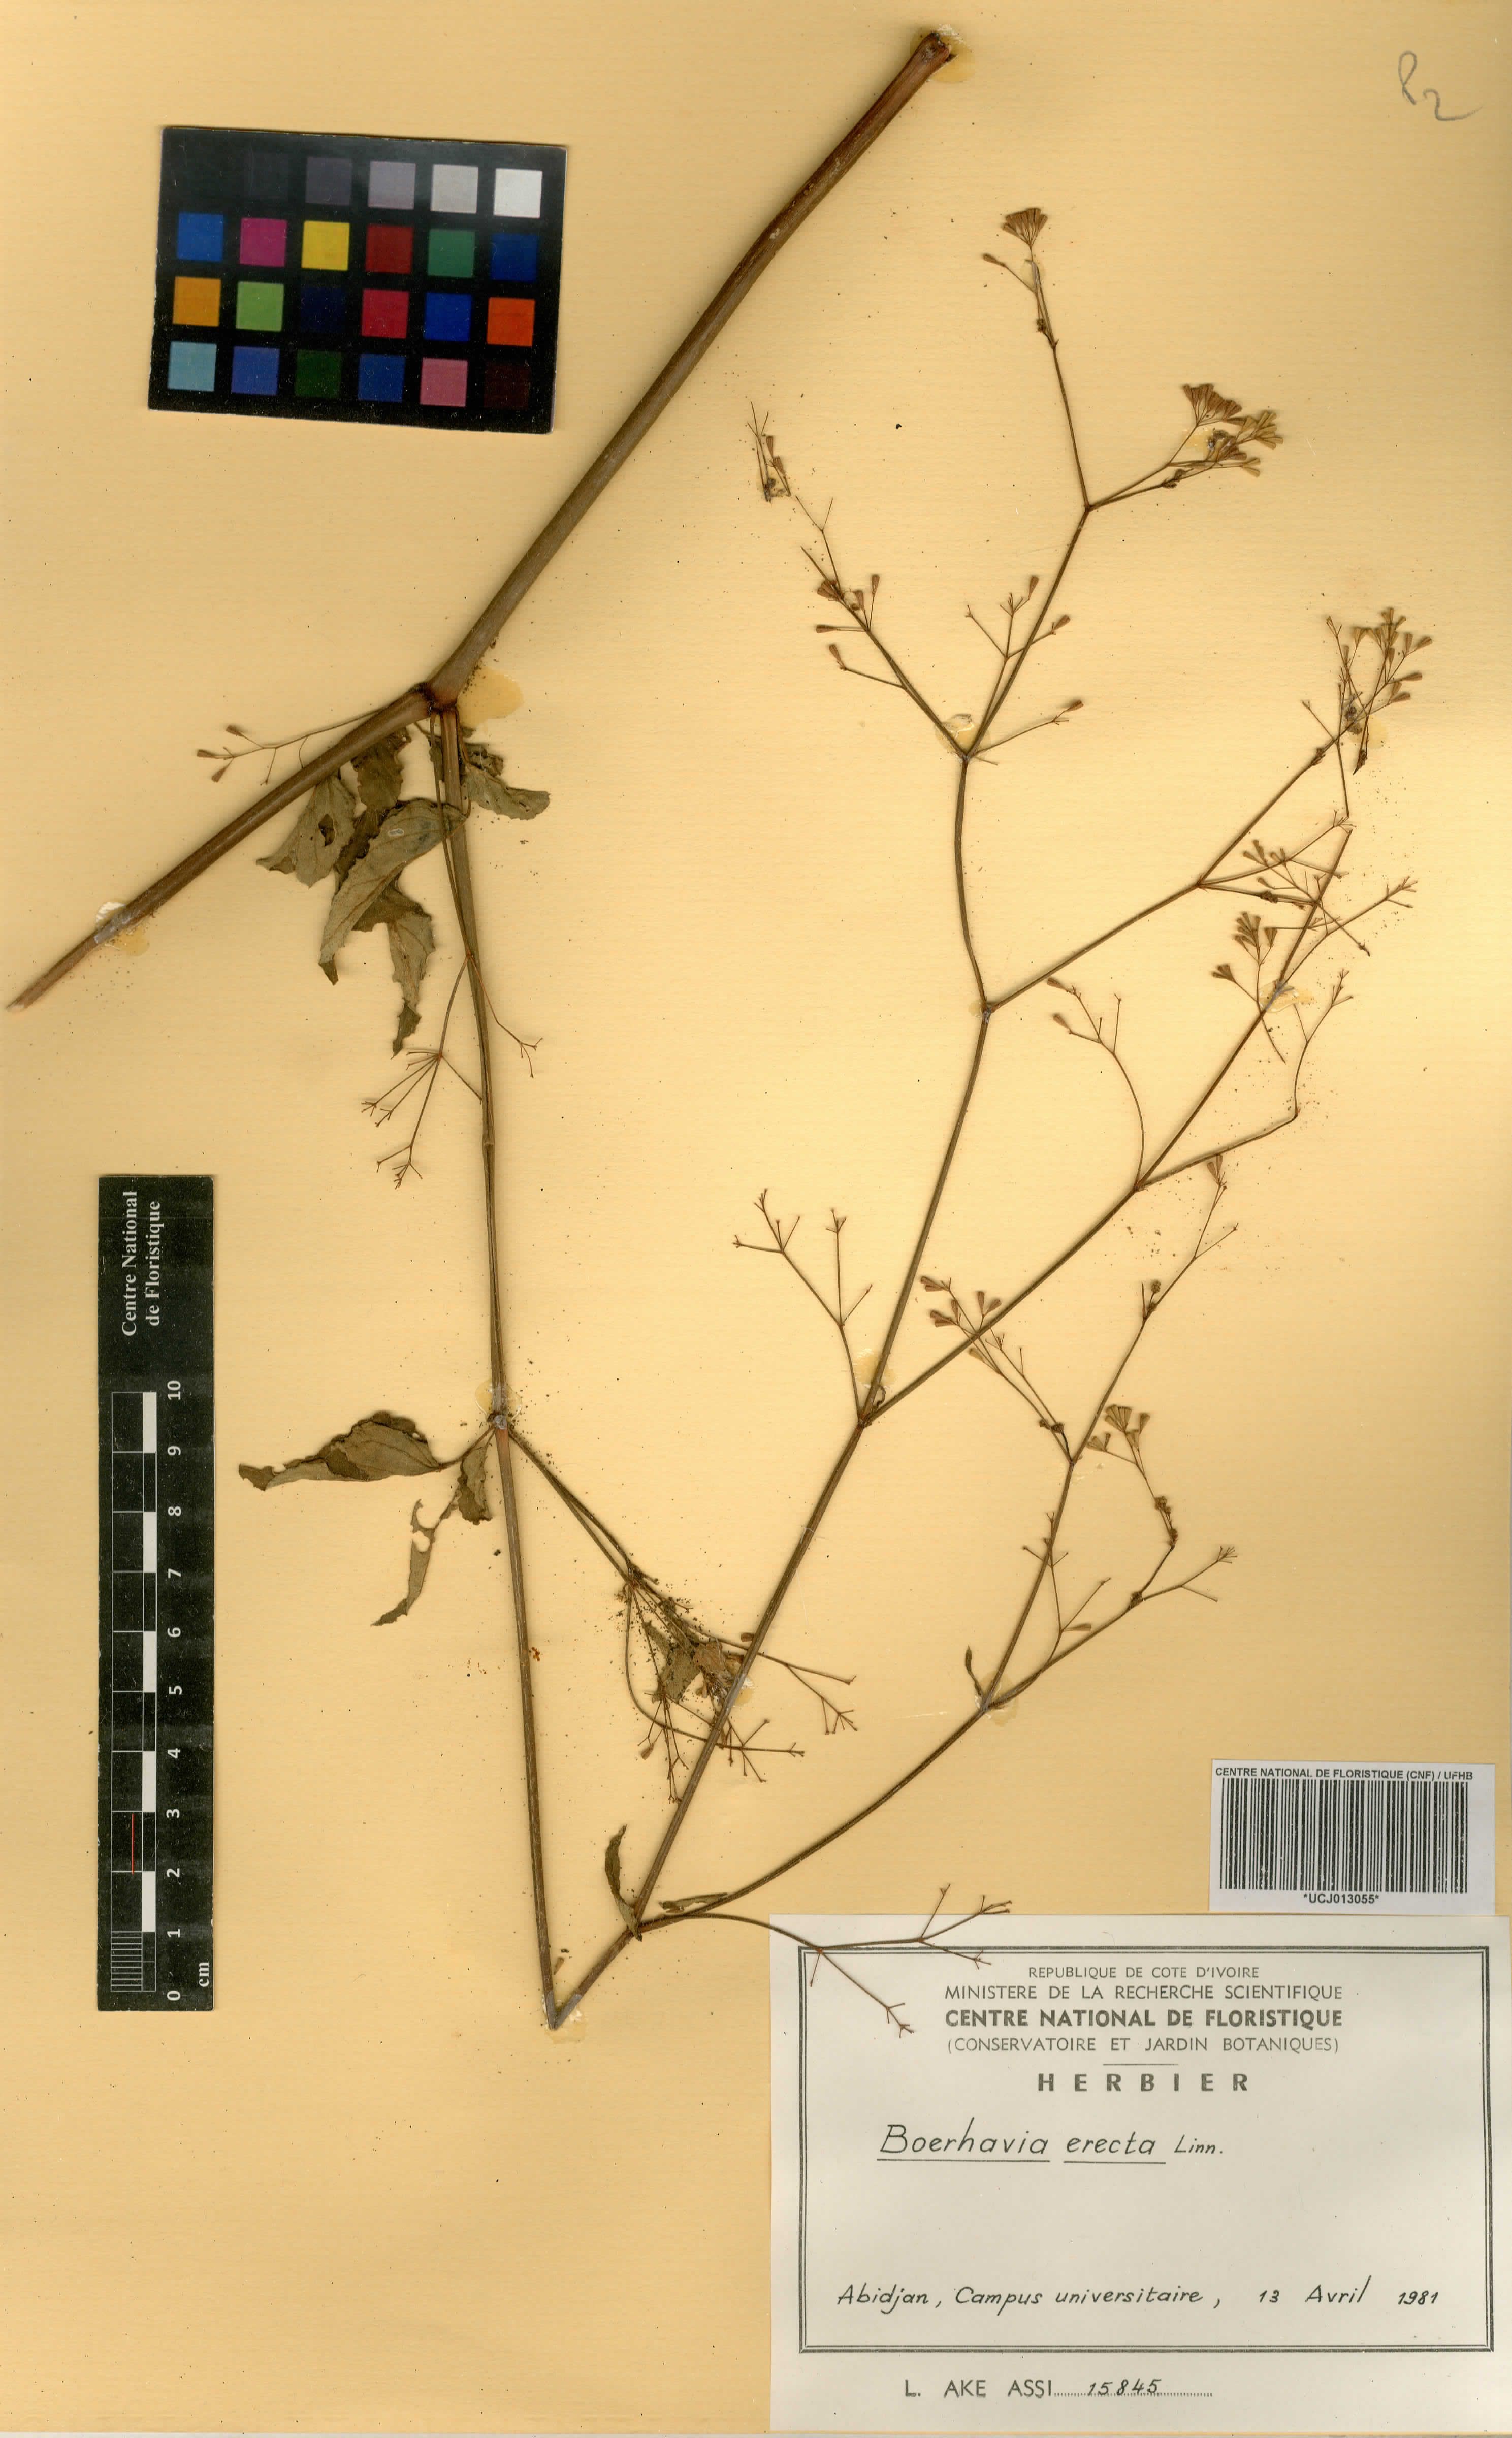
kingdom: Plantae
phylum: Tracheophyta
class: Magnoliopsida
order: Caryophyllales
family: Nyctaginaceae
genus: Boerhavia
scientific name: Boerhavia erecta
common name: Erect spiderling
